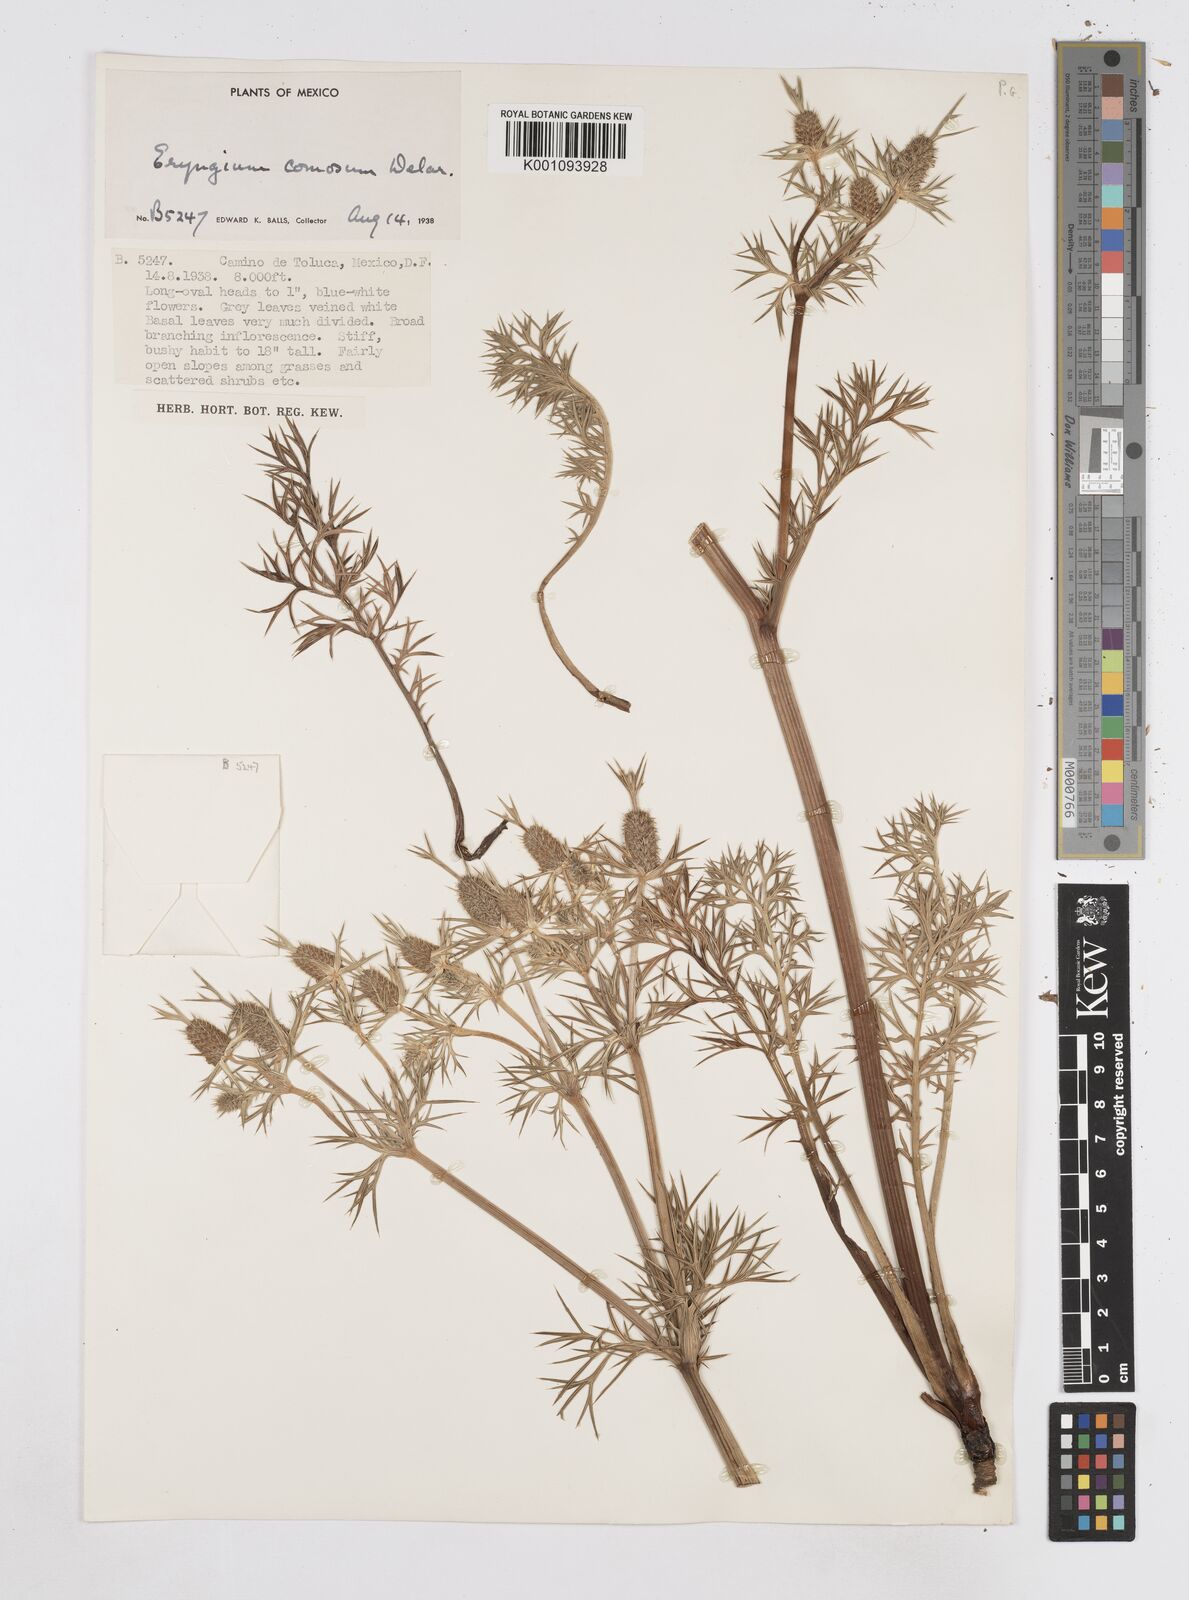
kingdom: Plantae
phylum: Tracheophyta
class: Magnoliopsida
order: Apiales
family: Apiaceae
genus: Eryngium
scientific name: Eryngium comosum
